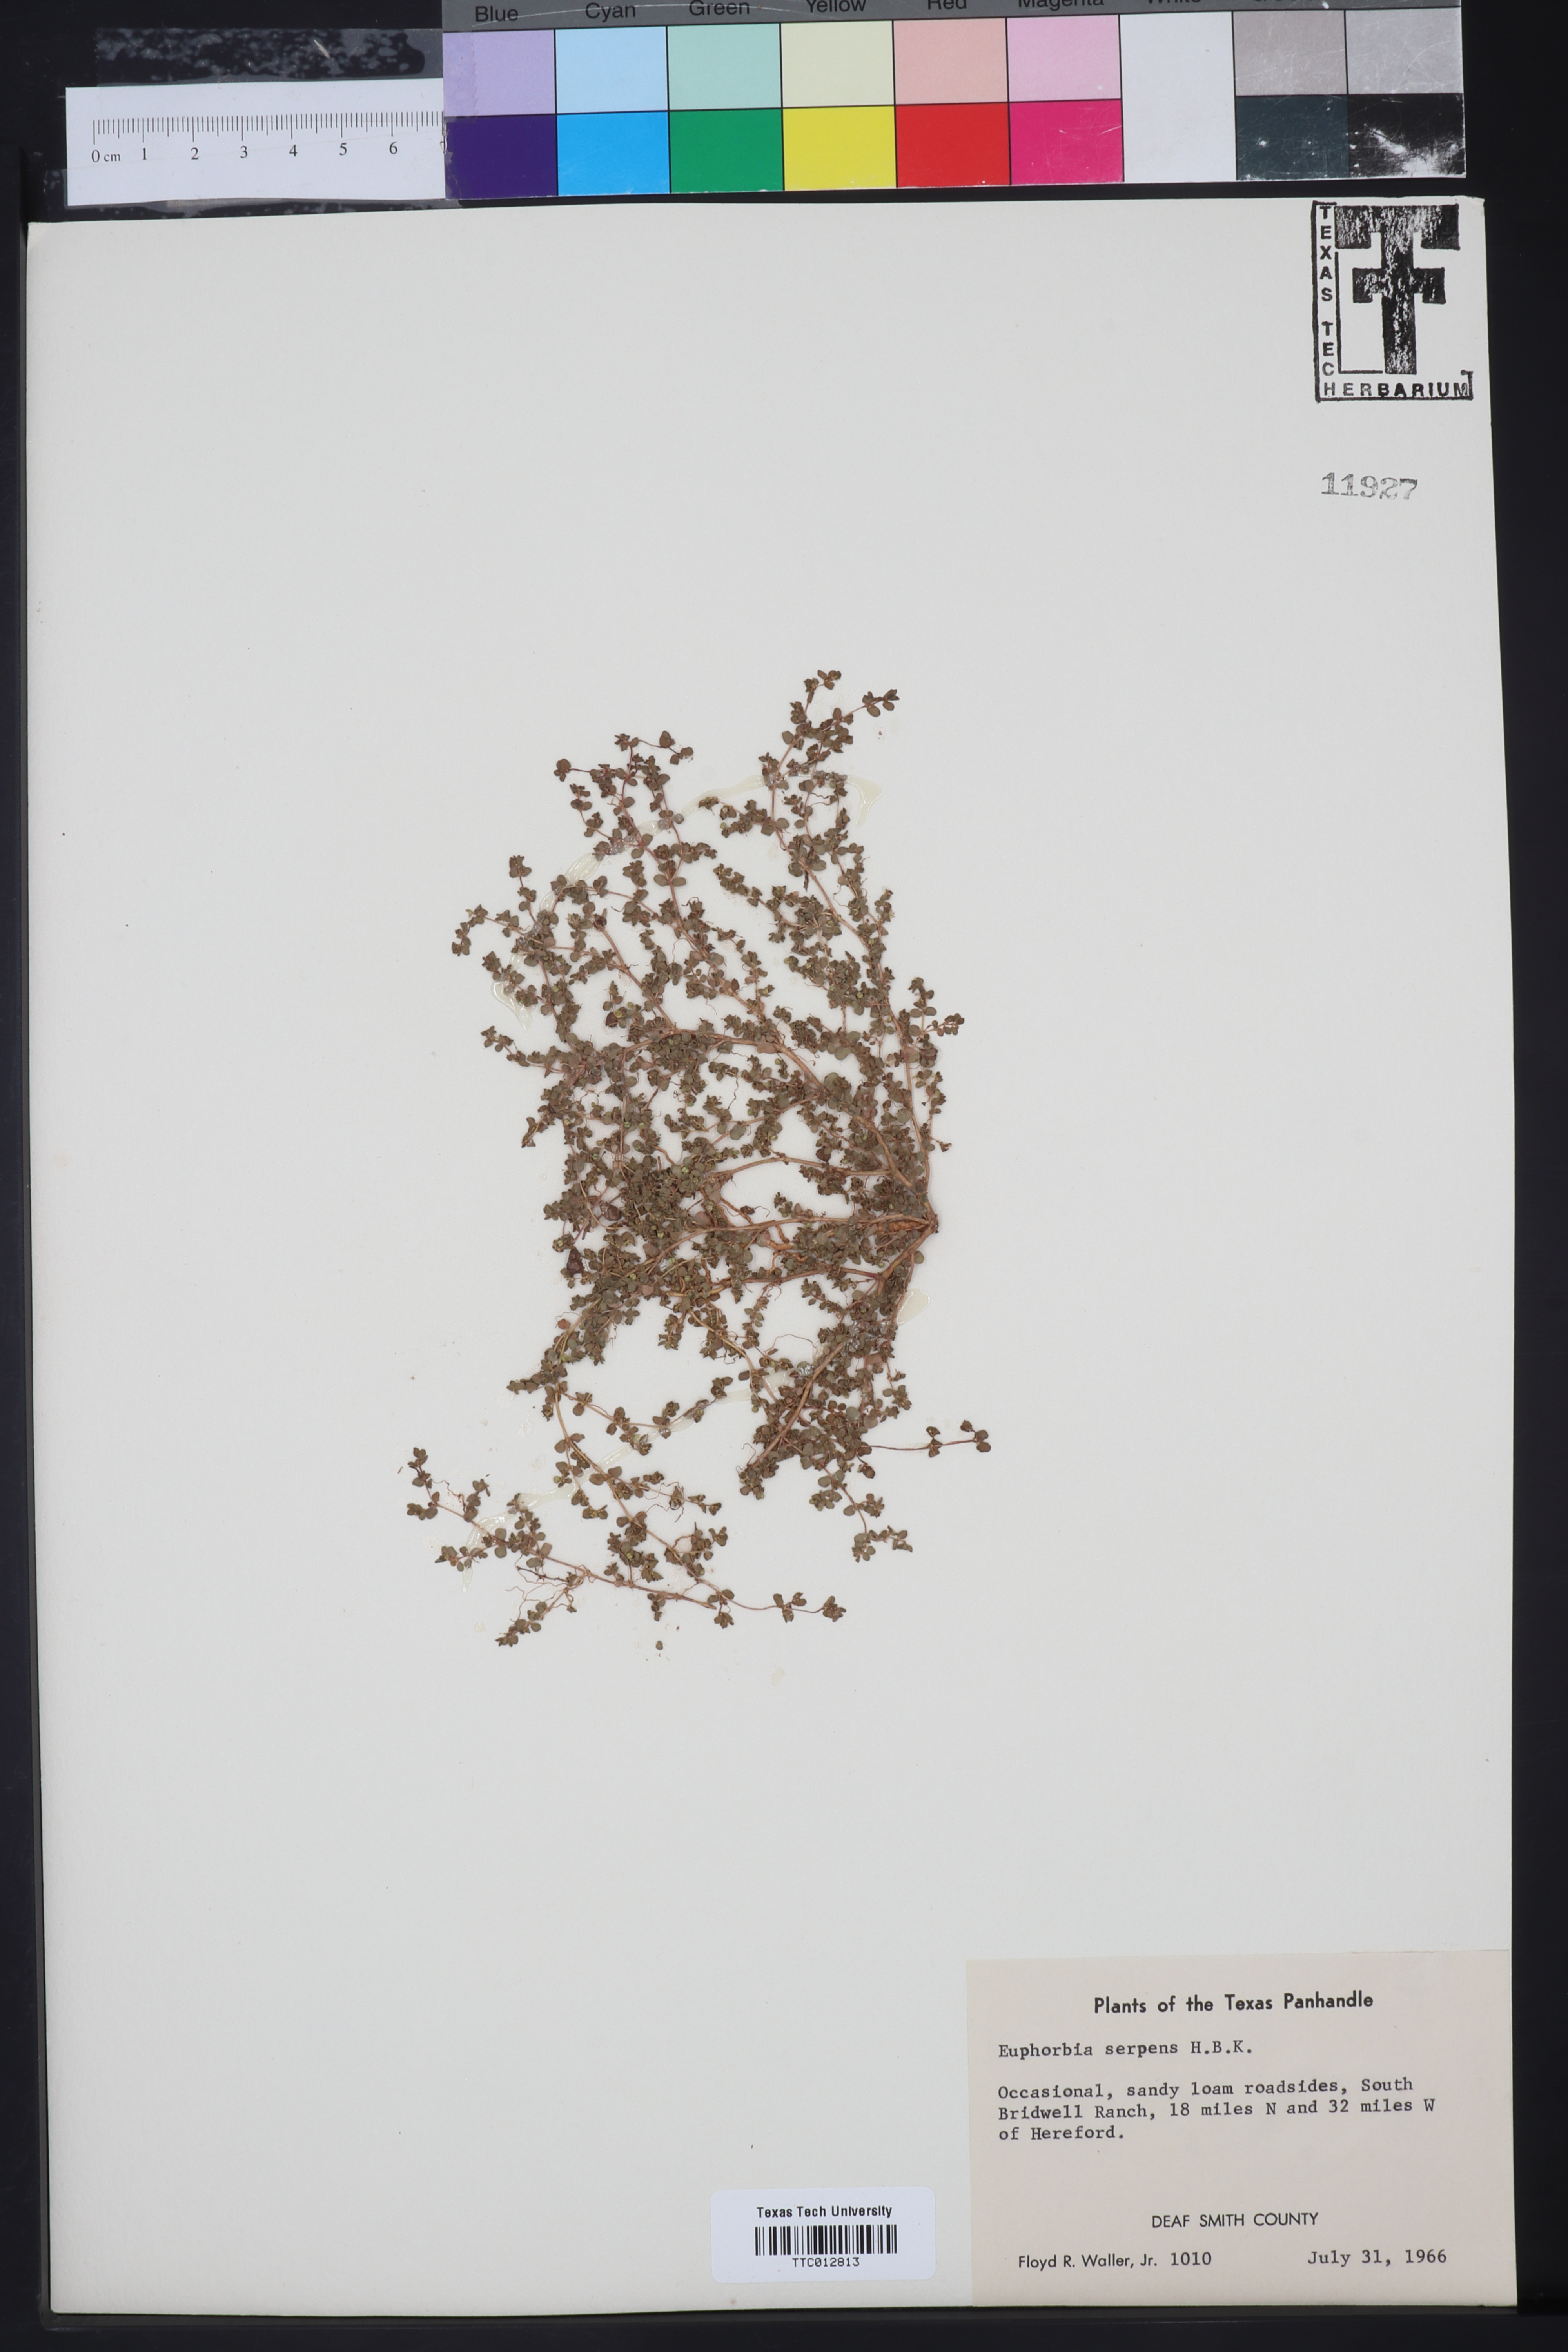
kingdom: Plantae
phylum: Tracheophyta
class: Magnoliopsida
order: Malpighiales
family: Euphorbiaceae
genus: Euphorbia
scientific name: Euphorbia serpens
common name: Matted sandmat
